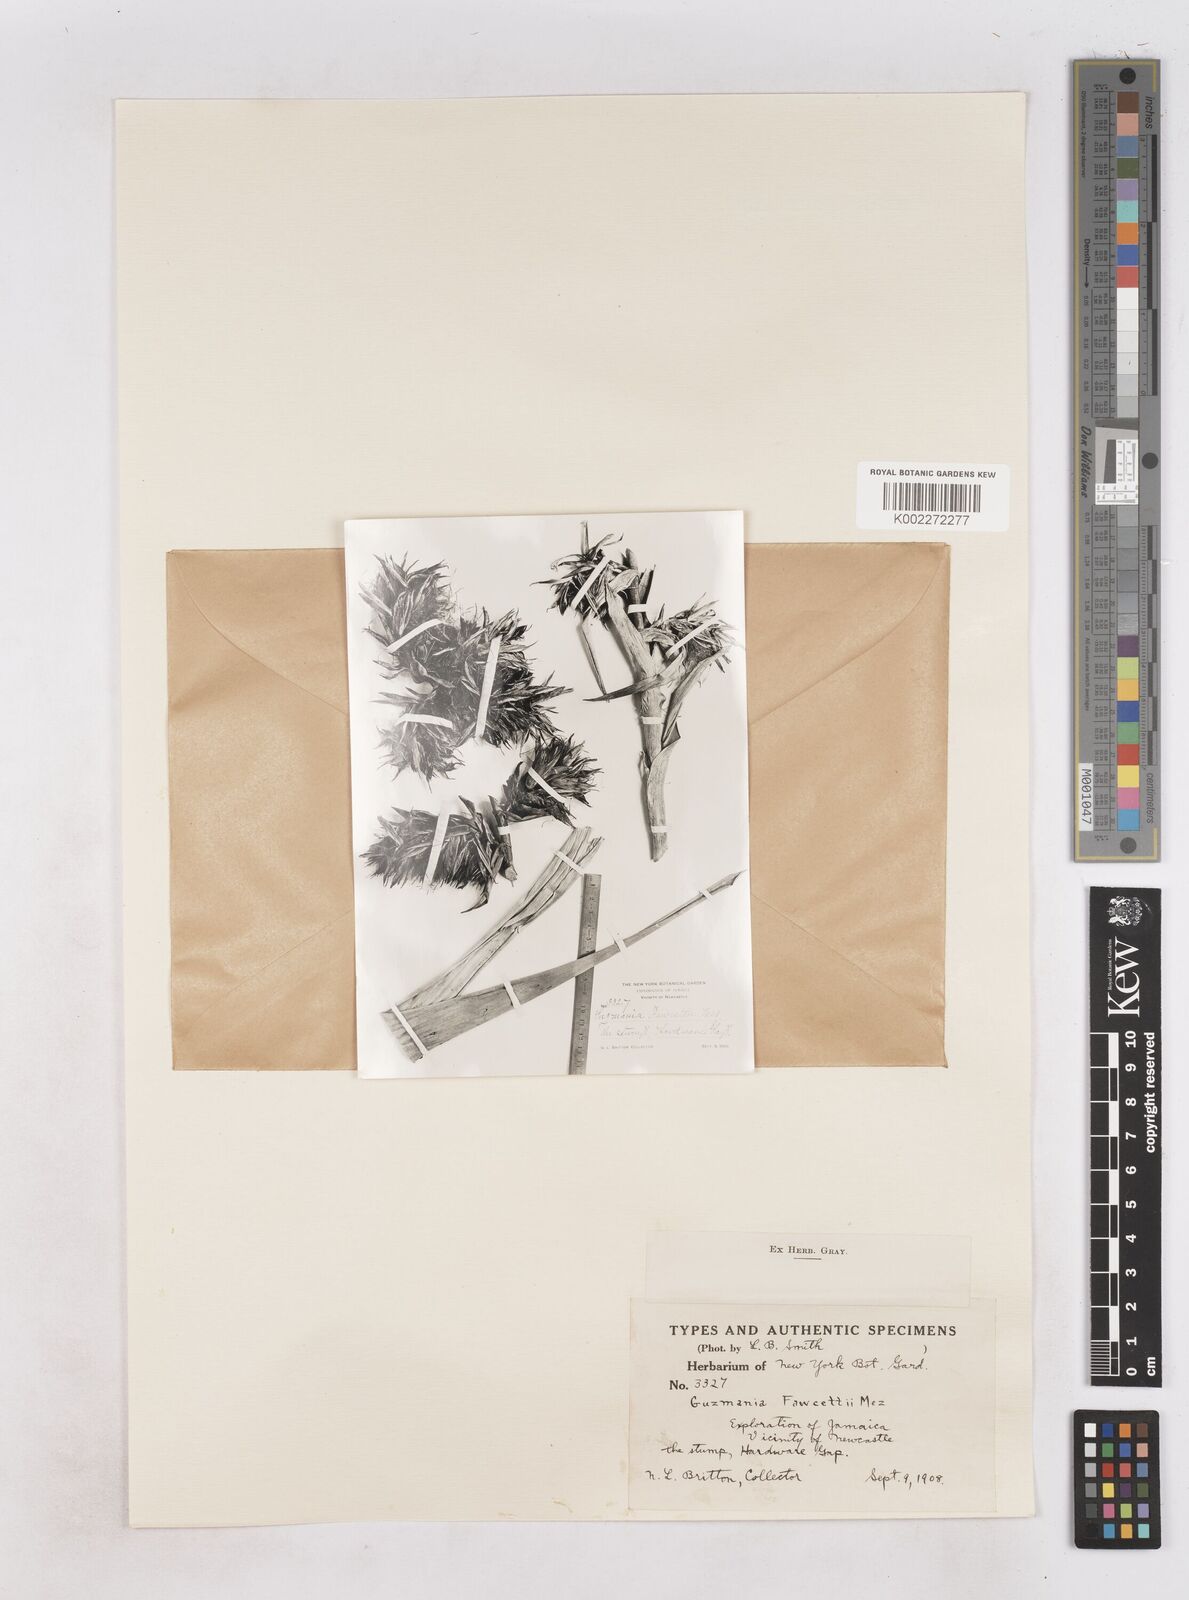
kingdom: Plantae
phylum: Tracheophyta
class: Liliopsida
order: Poales
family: Bromeliaceae
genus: Guzmania
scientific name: Guzmania fawcettii
